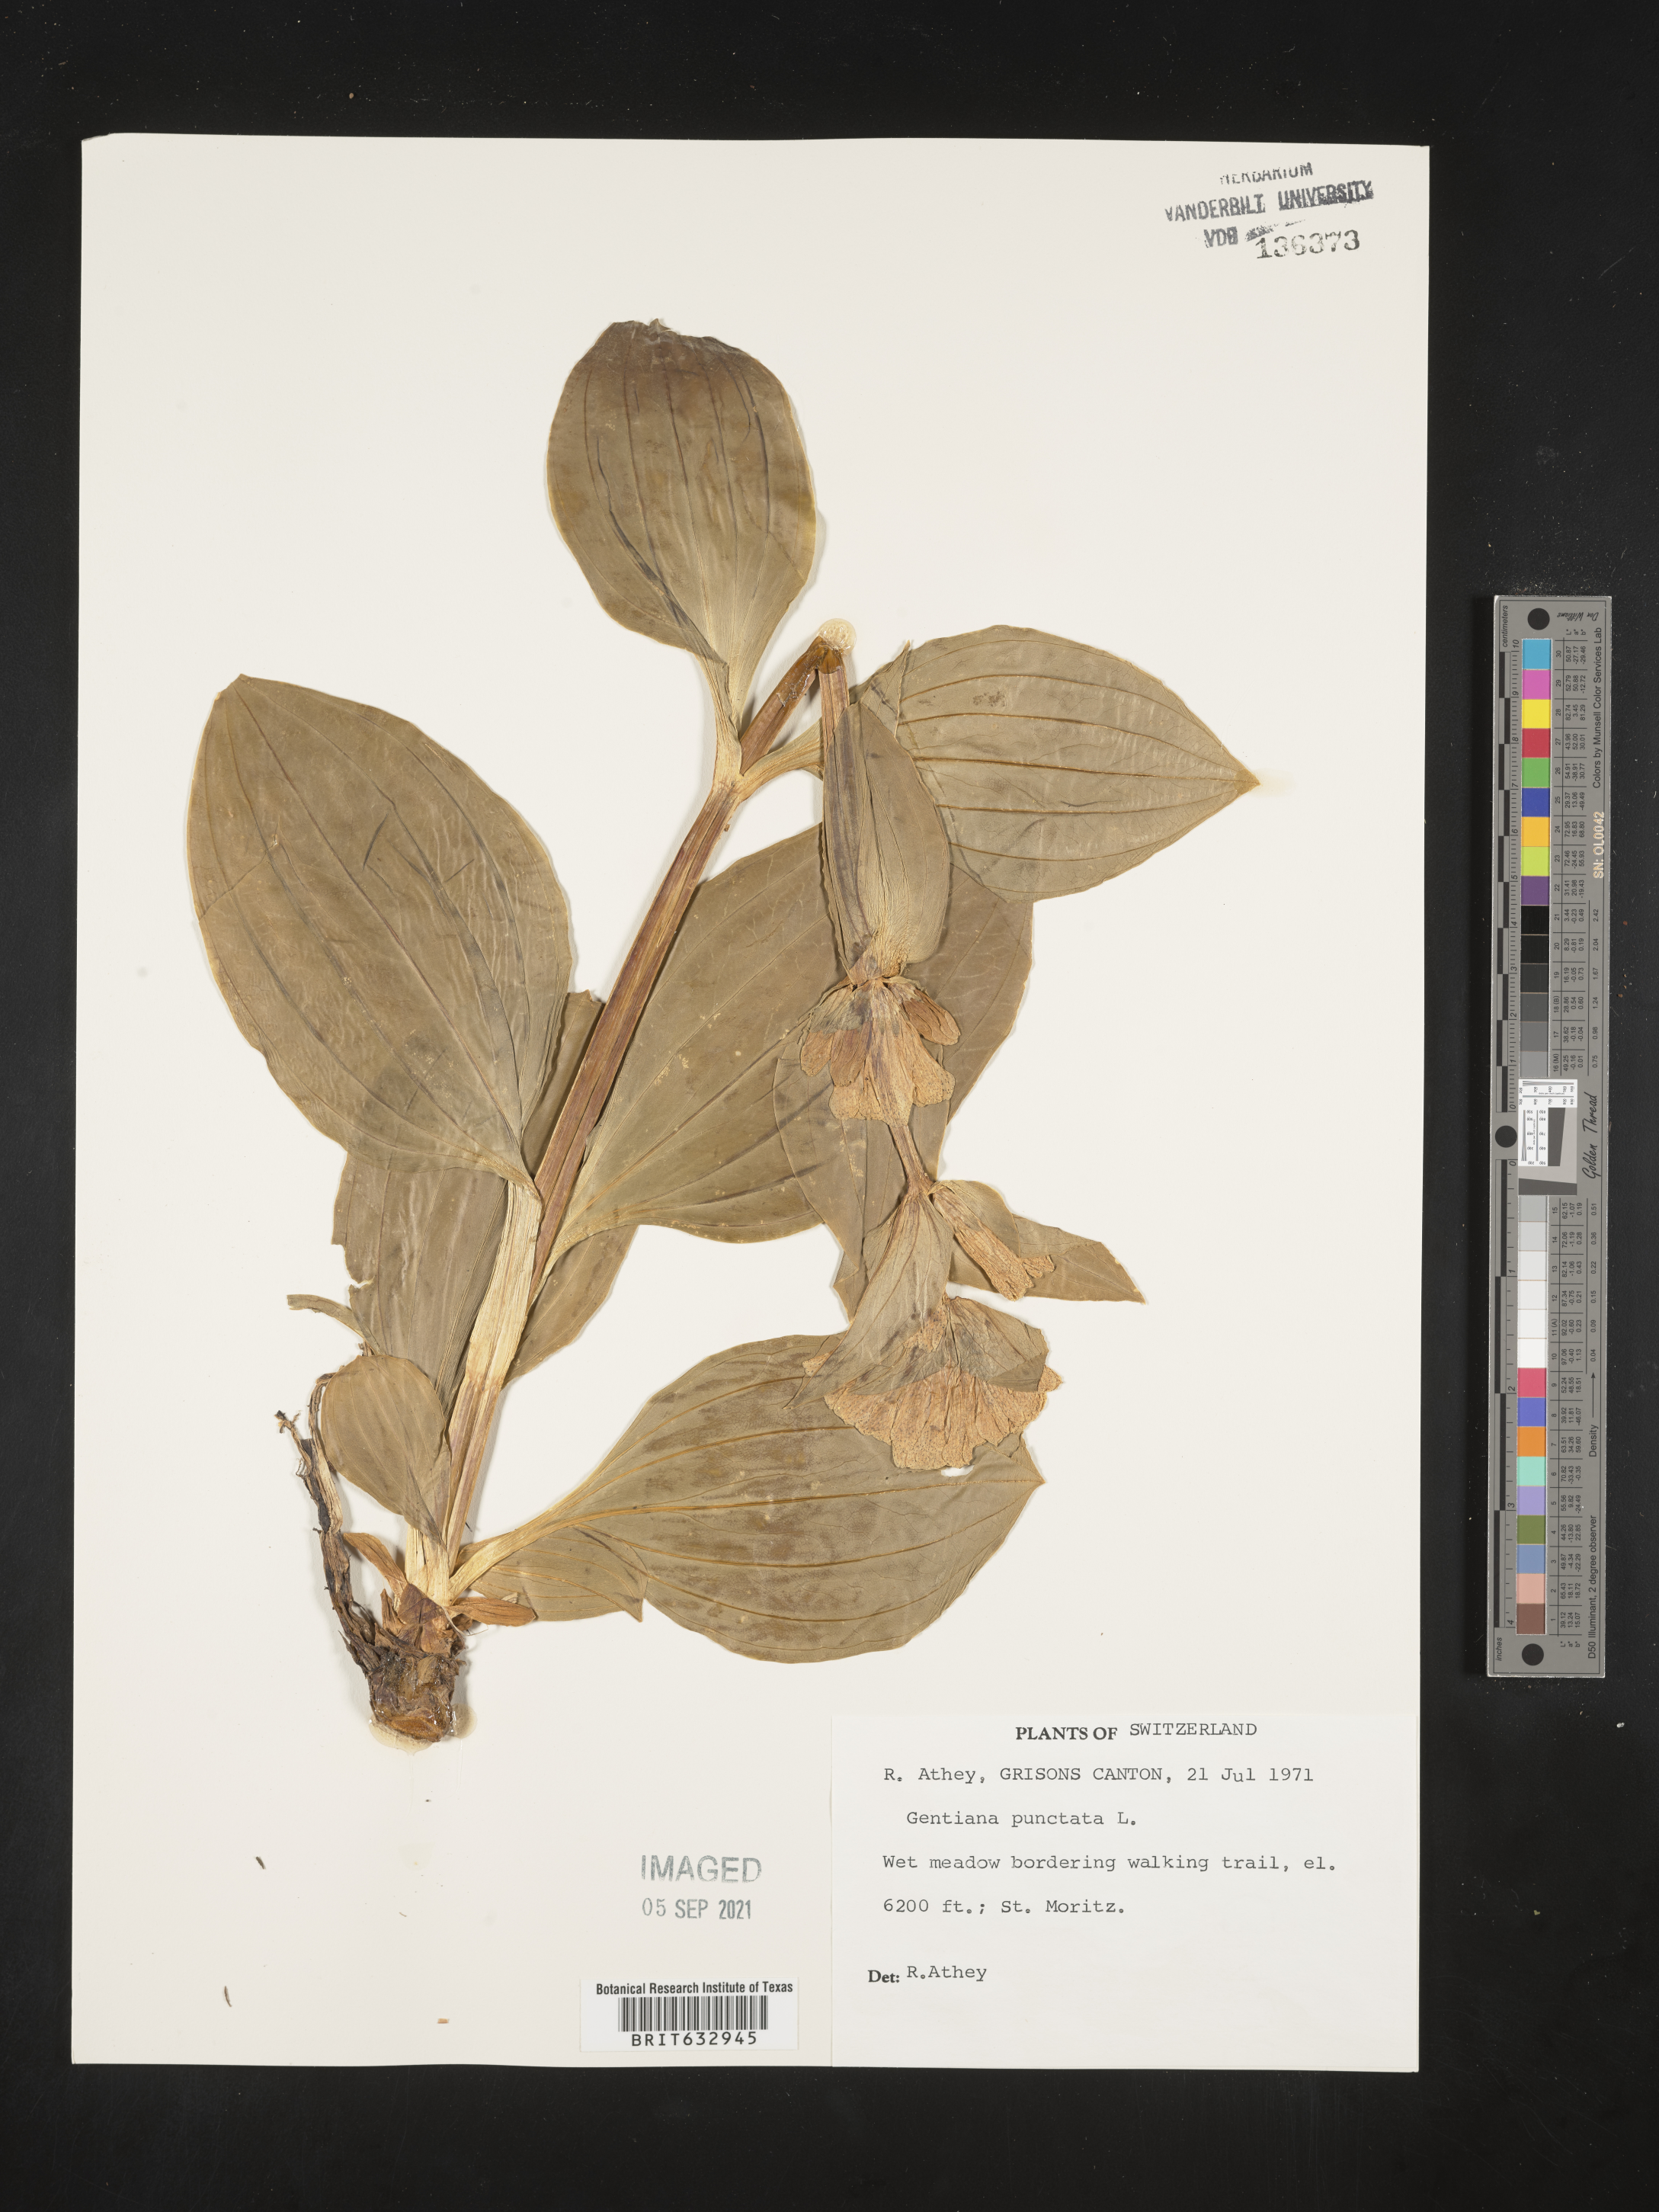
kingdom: Plantae
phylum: Tracheophyta
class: Magnoliopsida
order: Gentianales
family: Gentianaceae
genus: Gentiana
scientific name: Gentiana
